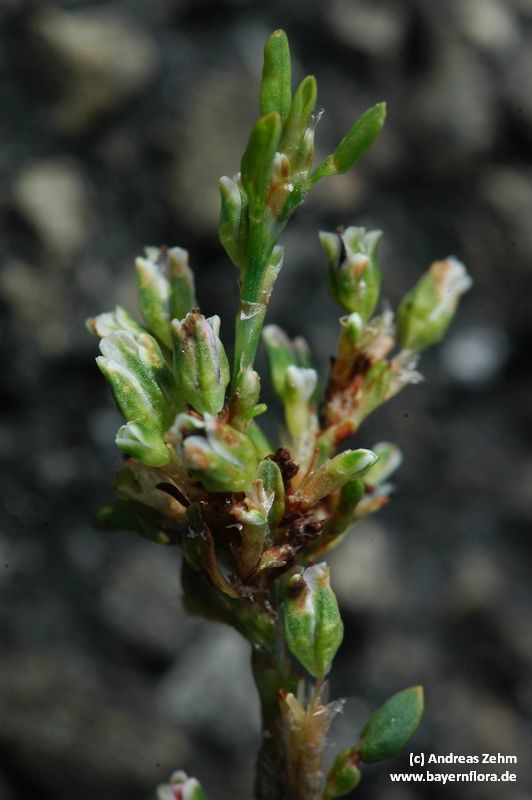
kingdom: Plantae
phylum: Tracheophyta
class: Magnoliopsida
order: Caryophyllales
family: Polygonaceae
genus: Polygonum
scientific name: Polygonum aviculare
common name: Prostrate knotweed
